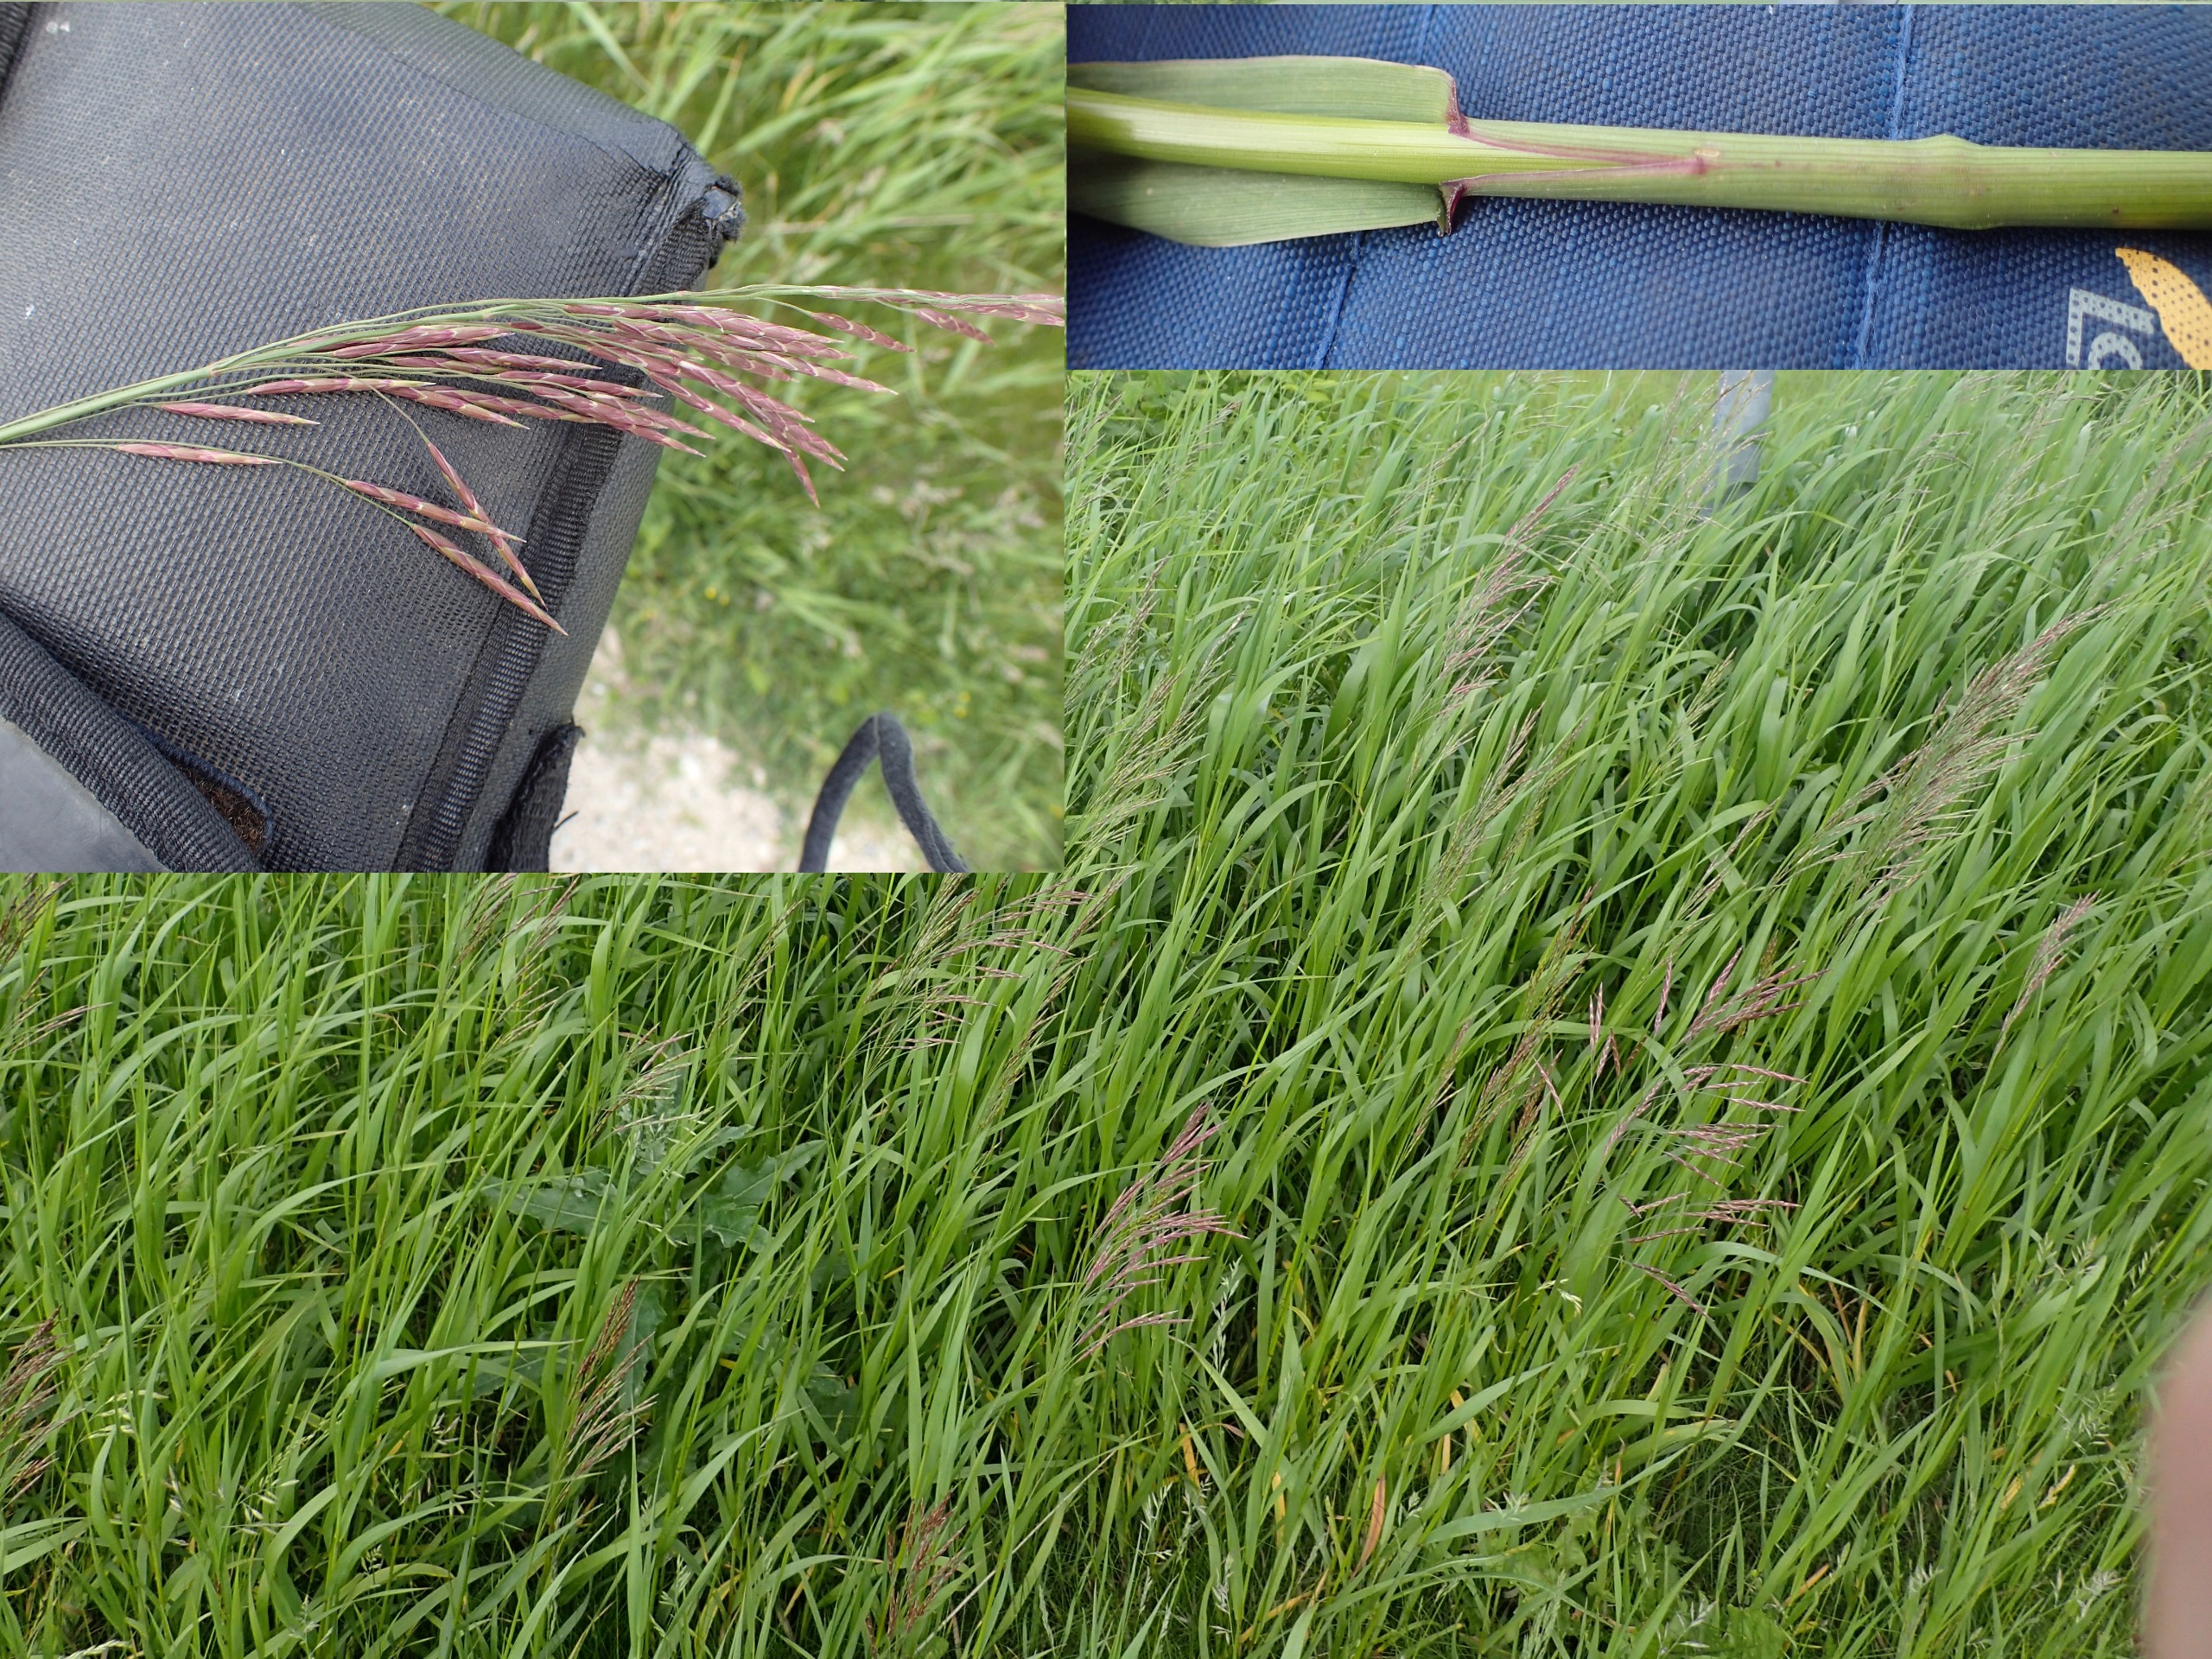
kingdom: Plantae
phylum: Tracheophyta
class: Liliopsida
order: Poales
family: Poaceae
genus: Bromus
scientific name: Bromus inermis
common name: Stakløs hejre
